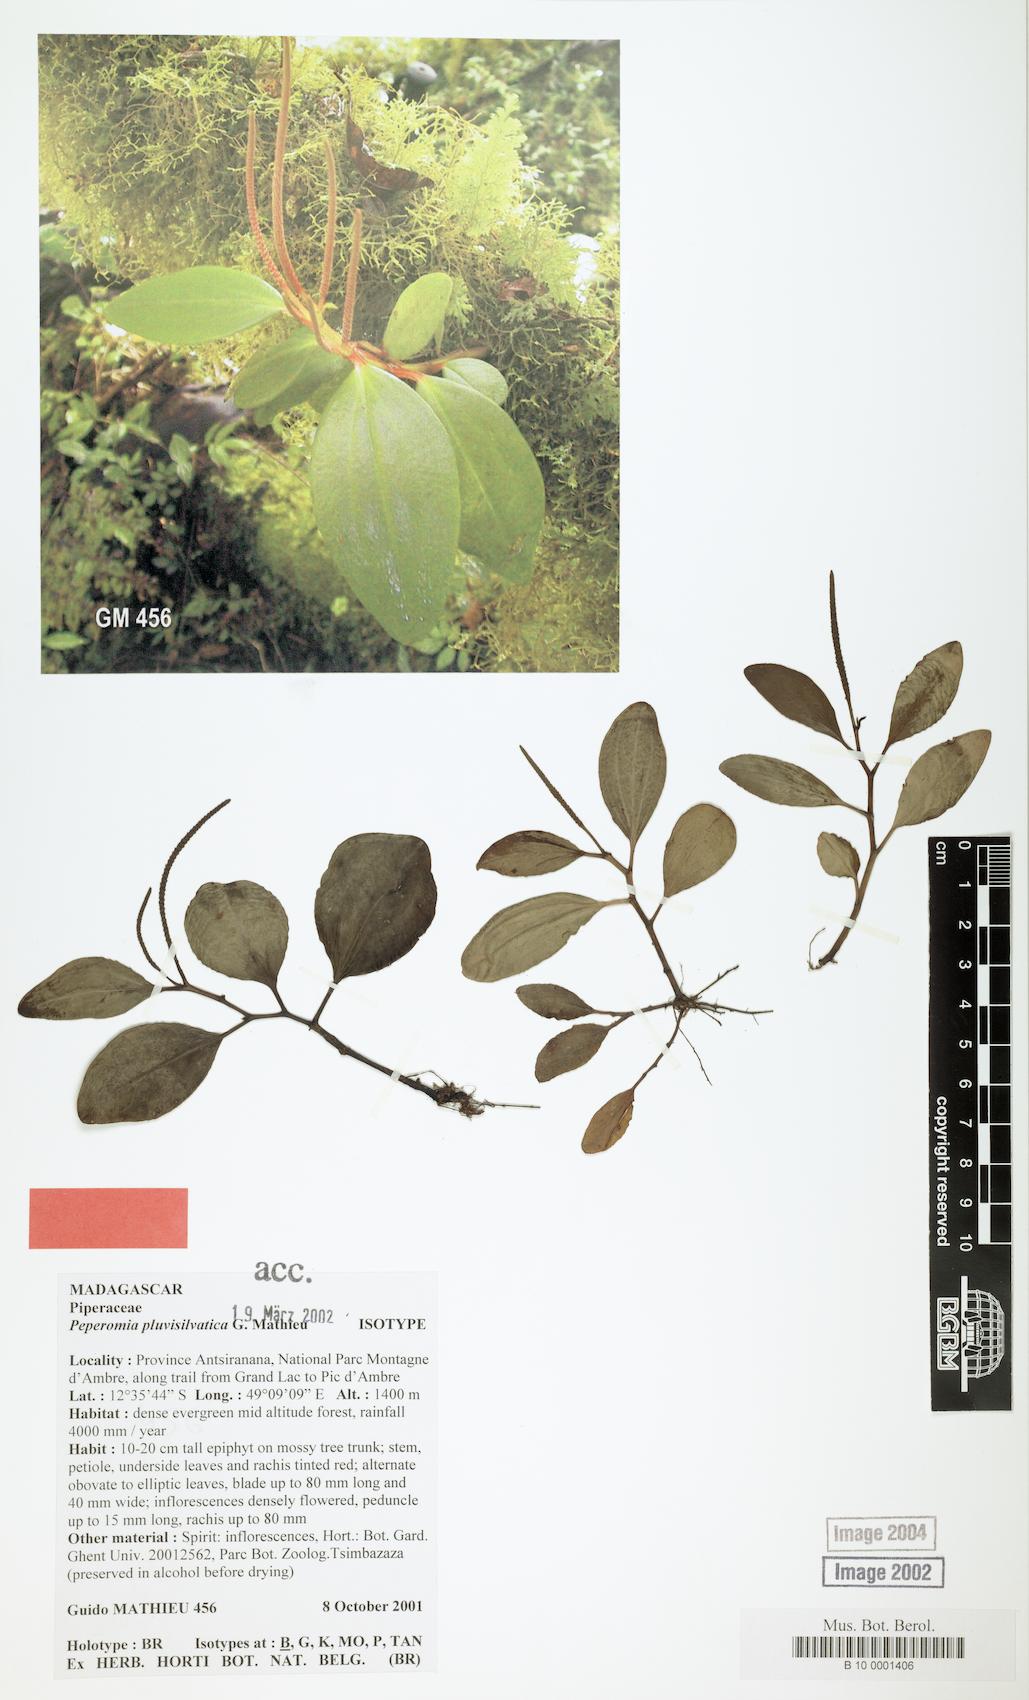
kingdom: Plantae
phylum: Tracheophyta
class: Magnoliopsida
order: Piperales
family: Piperaceae
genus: Peperomia
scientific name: Peperomia pluvisilvatica
